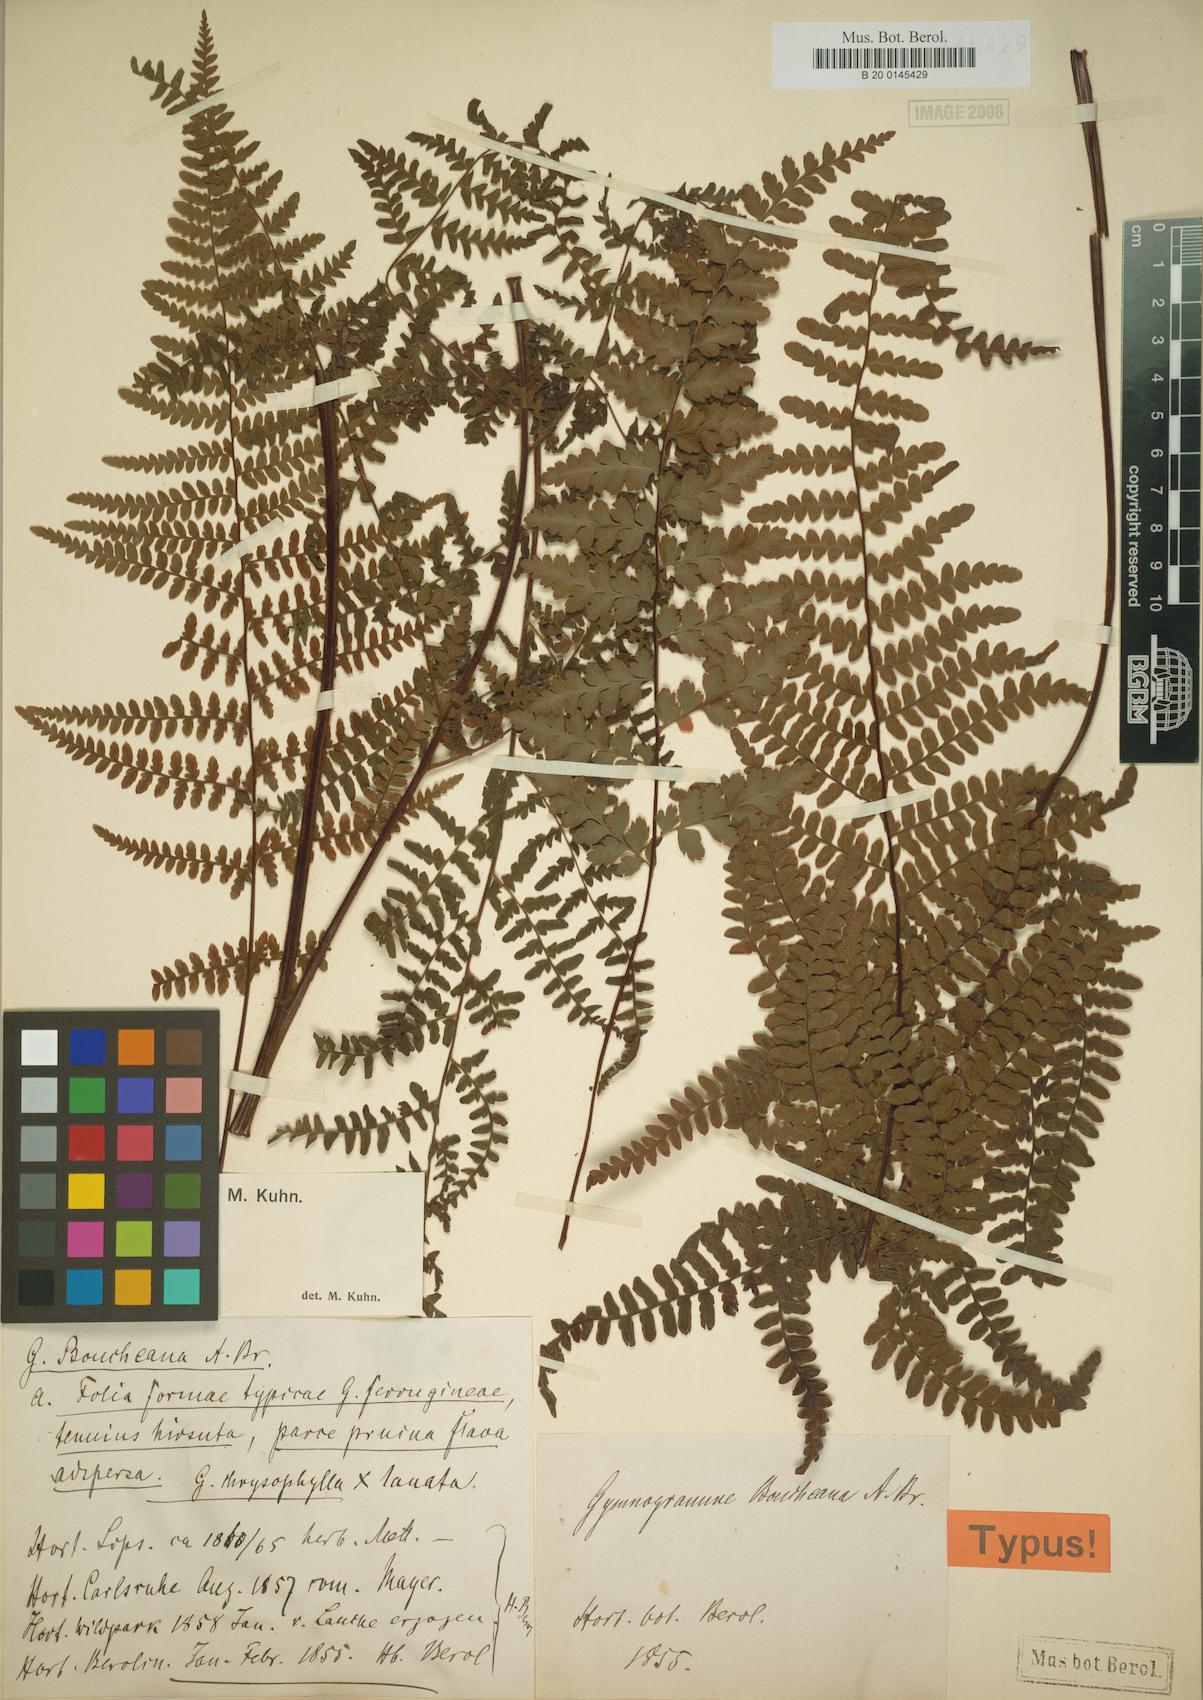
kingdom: Plantae
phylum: Tracheophyta
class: Polypodiopsida
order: Polypodiales
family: Adiantaceae
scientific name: Adiantaceae
